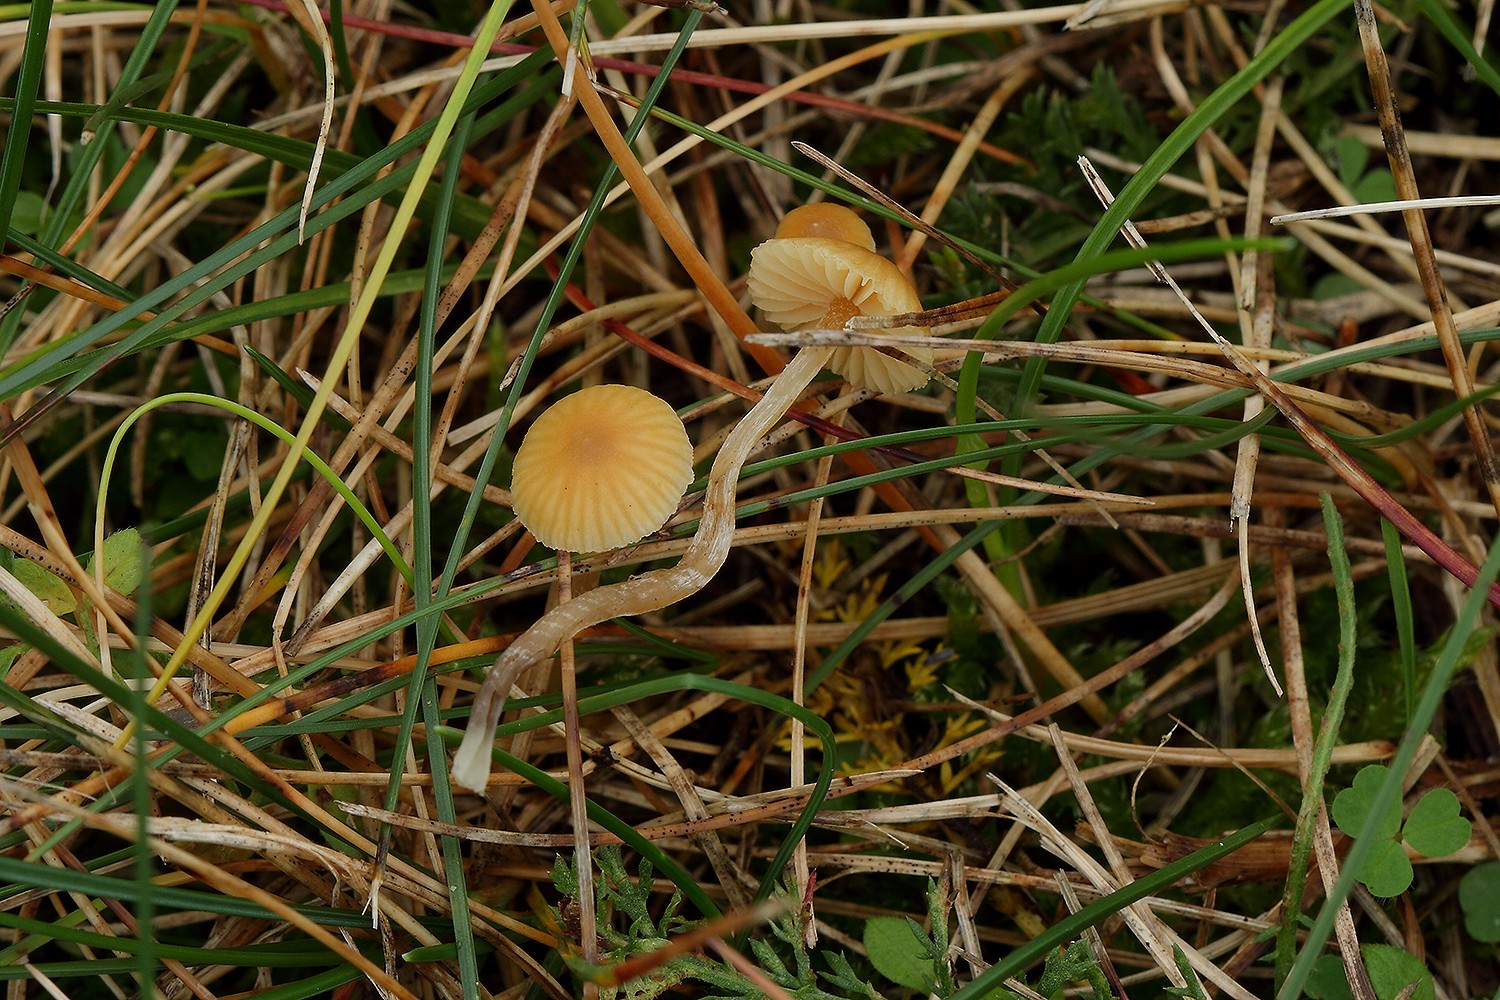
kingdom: Fungi
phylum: Basidiomycota
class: Agaricomycetes
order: Agaricales
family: Hymenogastraceae
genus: Galerina
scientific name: Galerina graminea
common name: plæne-hjelmhat
